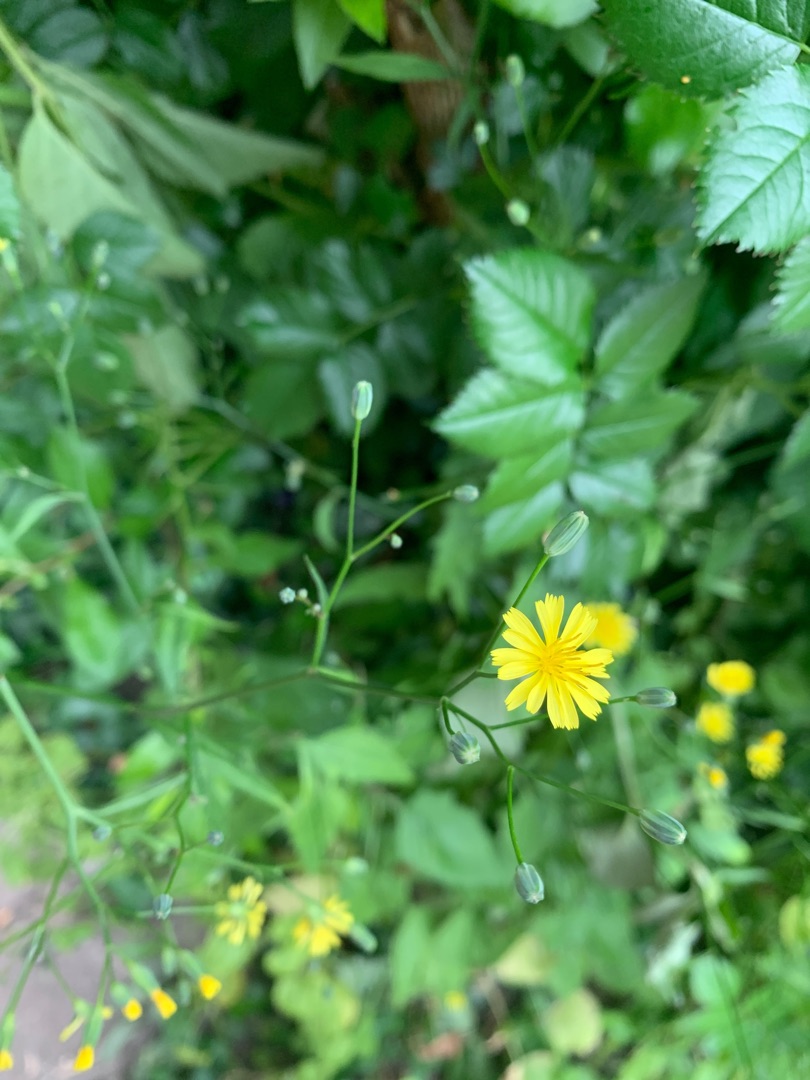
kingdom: Plantae
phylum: Tracheophyta
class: Magnoliopsida
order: Asterales
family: Asteraceae
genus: Lapsana
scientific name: Lapsana communis
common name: Haremad
